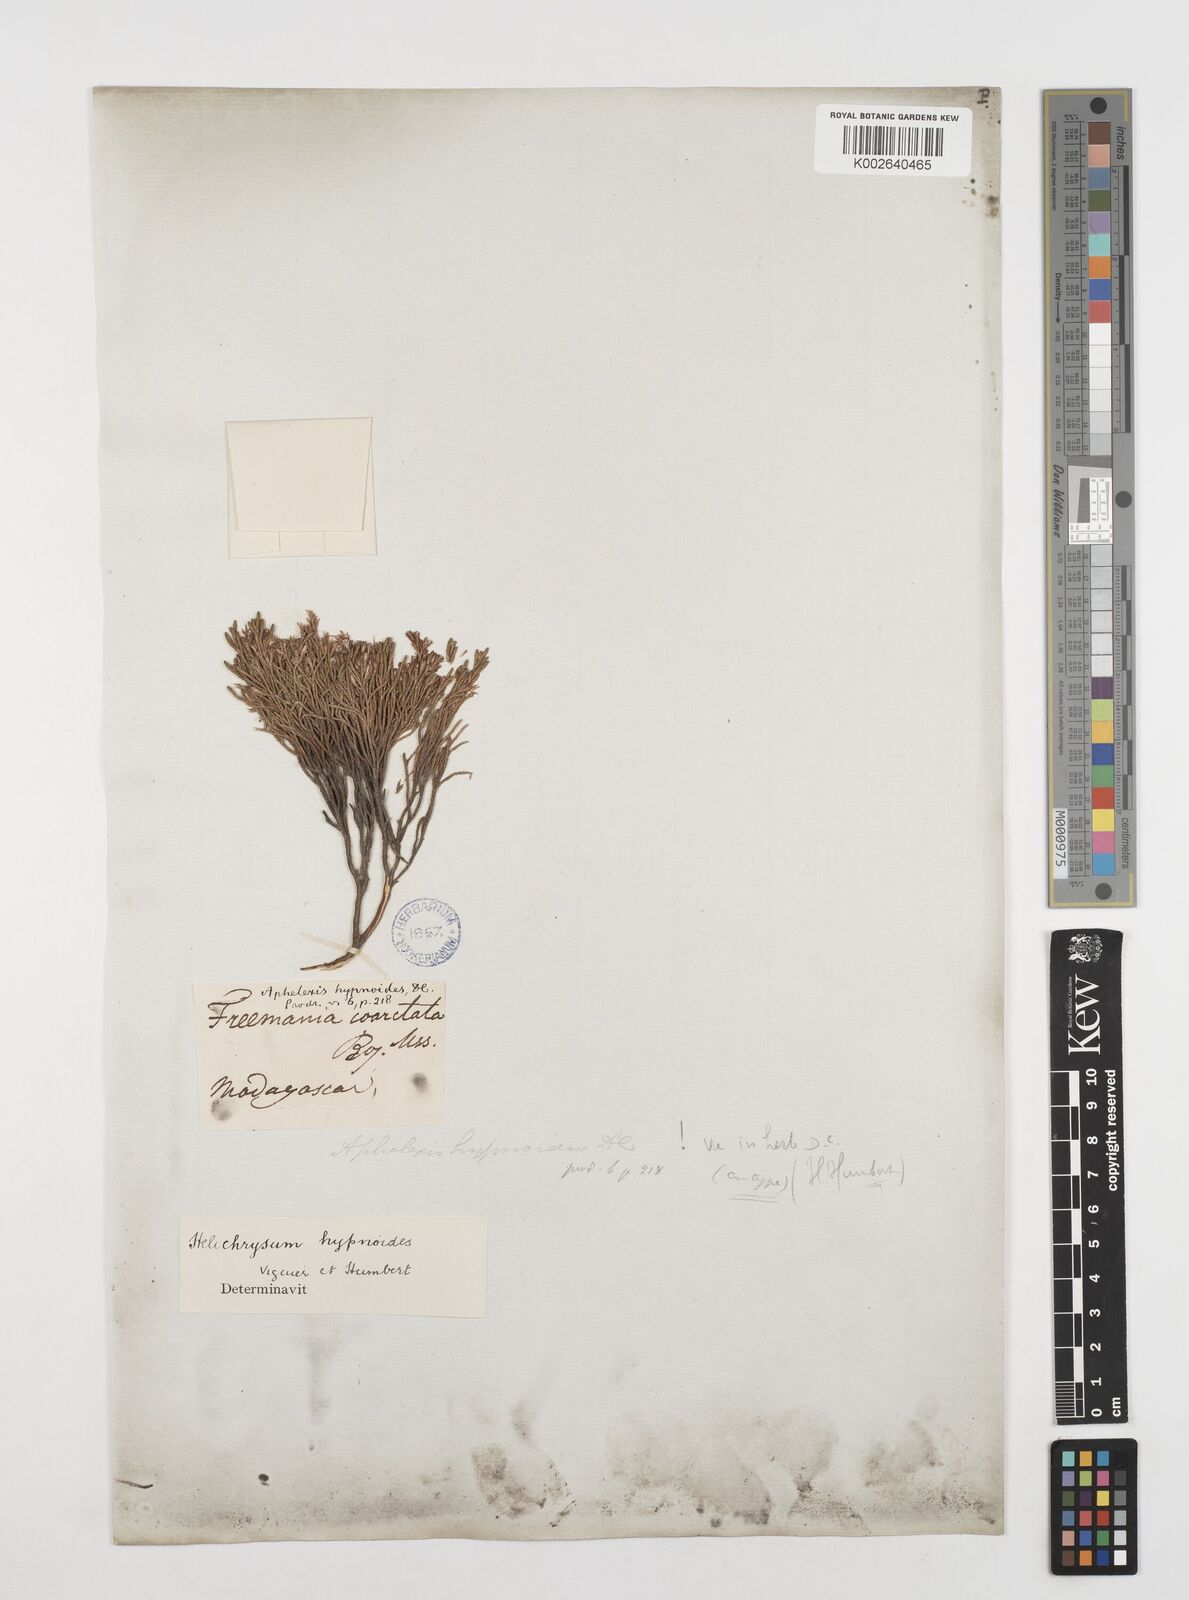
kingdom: Plantae
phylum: Tracheophyta
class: Magnoliopsida
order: Asterales
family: Asteraceae
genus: Aphelexis
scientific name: Aphelexis hypnoides
